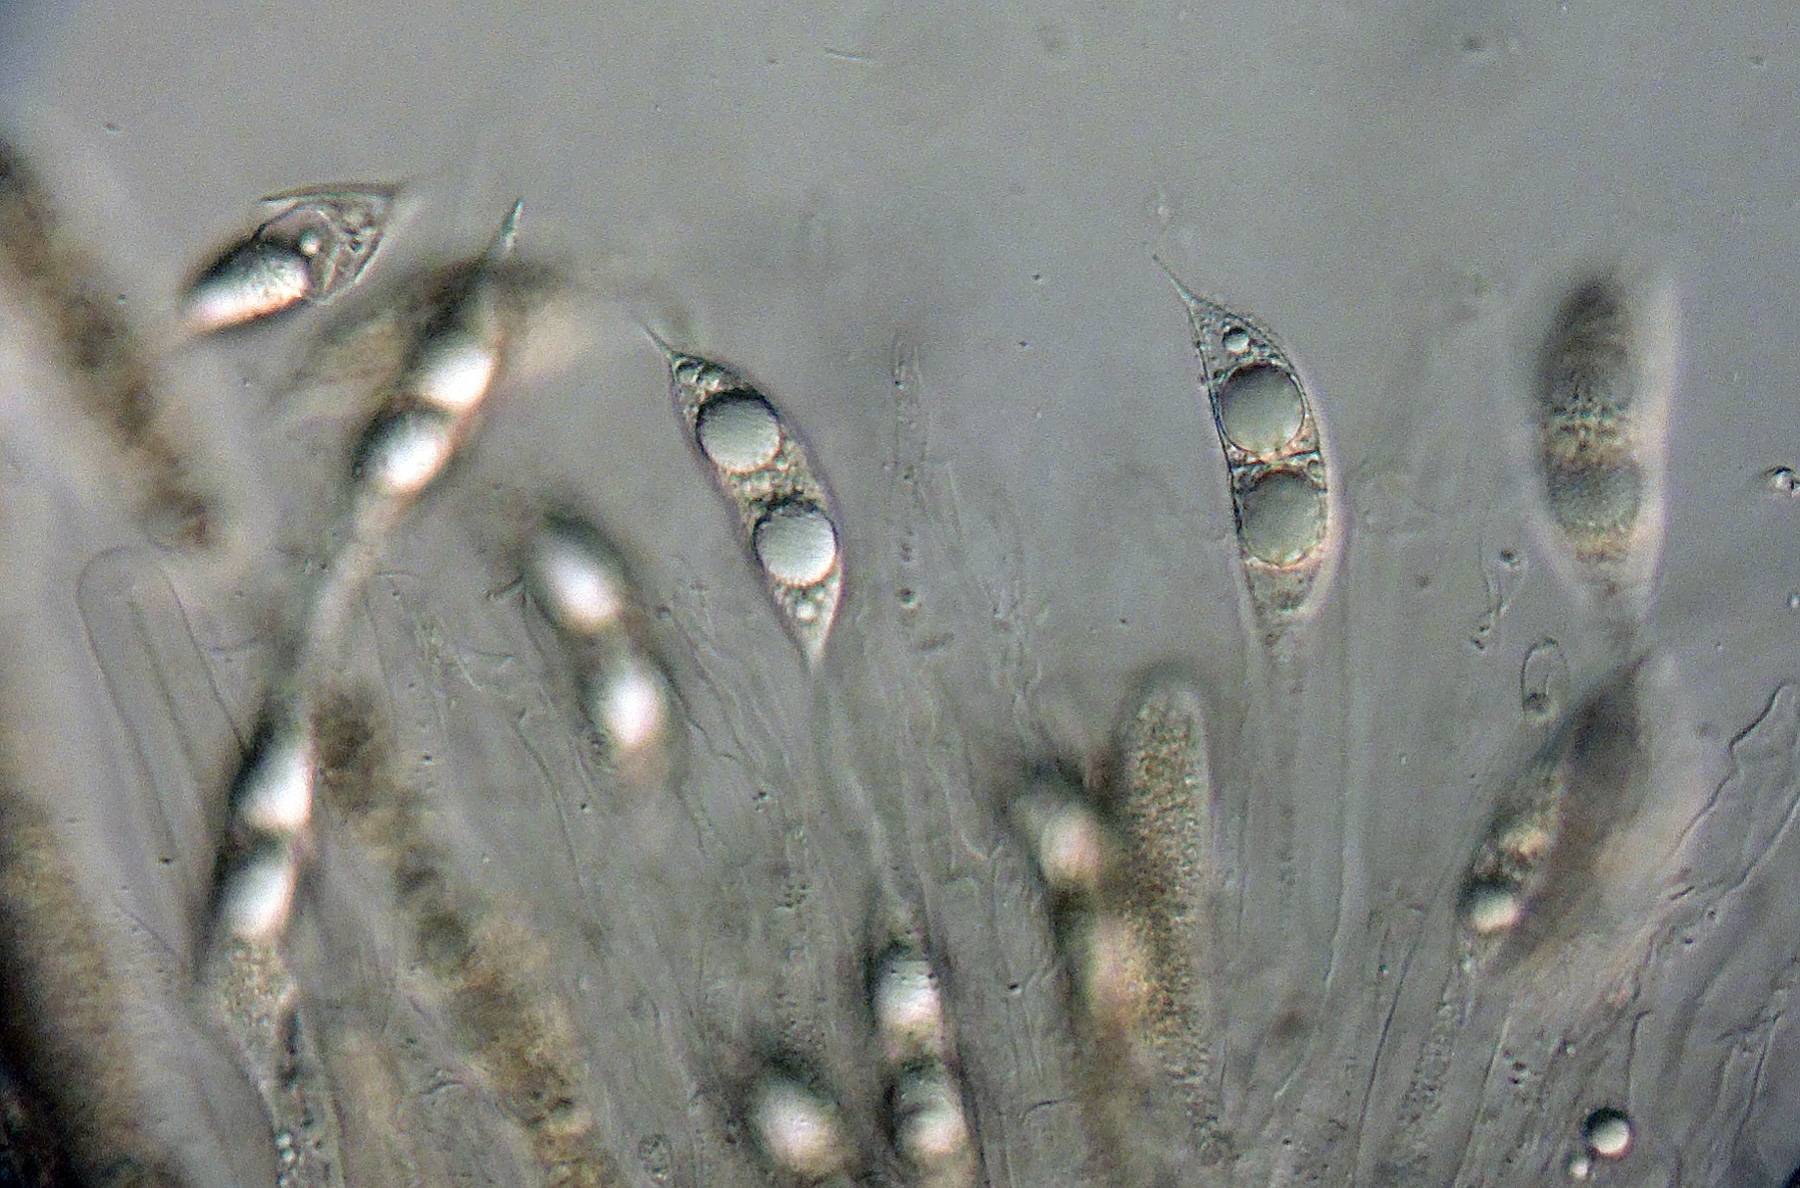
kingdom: Fungi
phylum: Ascomycota
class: Sordariomycetes
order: Amphisphaeriales
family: Amphisphaeriaceae
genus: Ceriospora
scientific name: Ceriospora ribis
